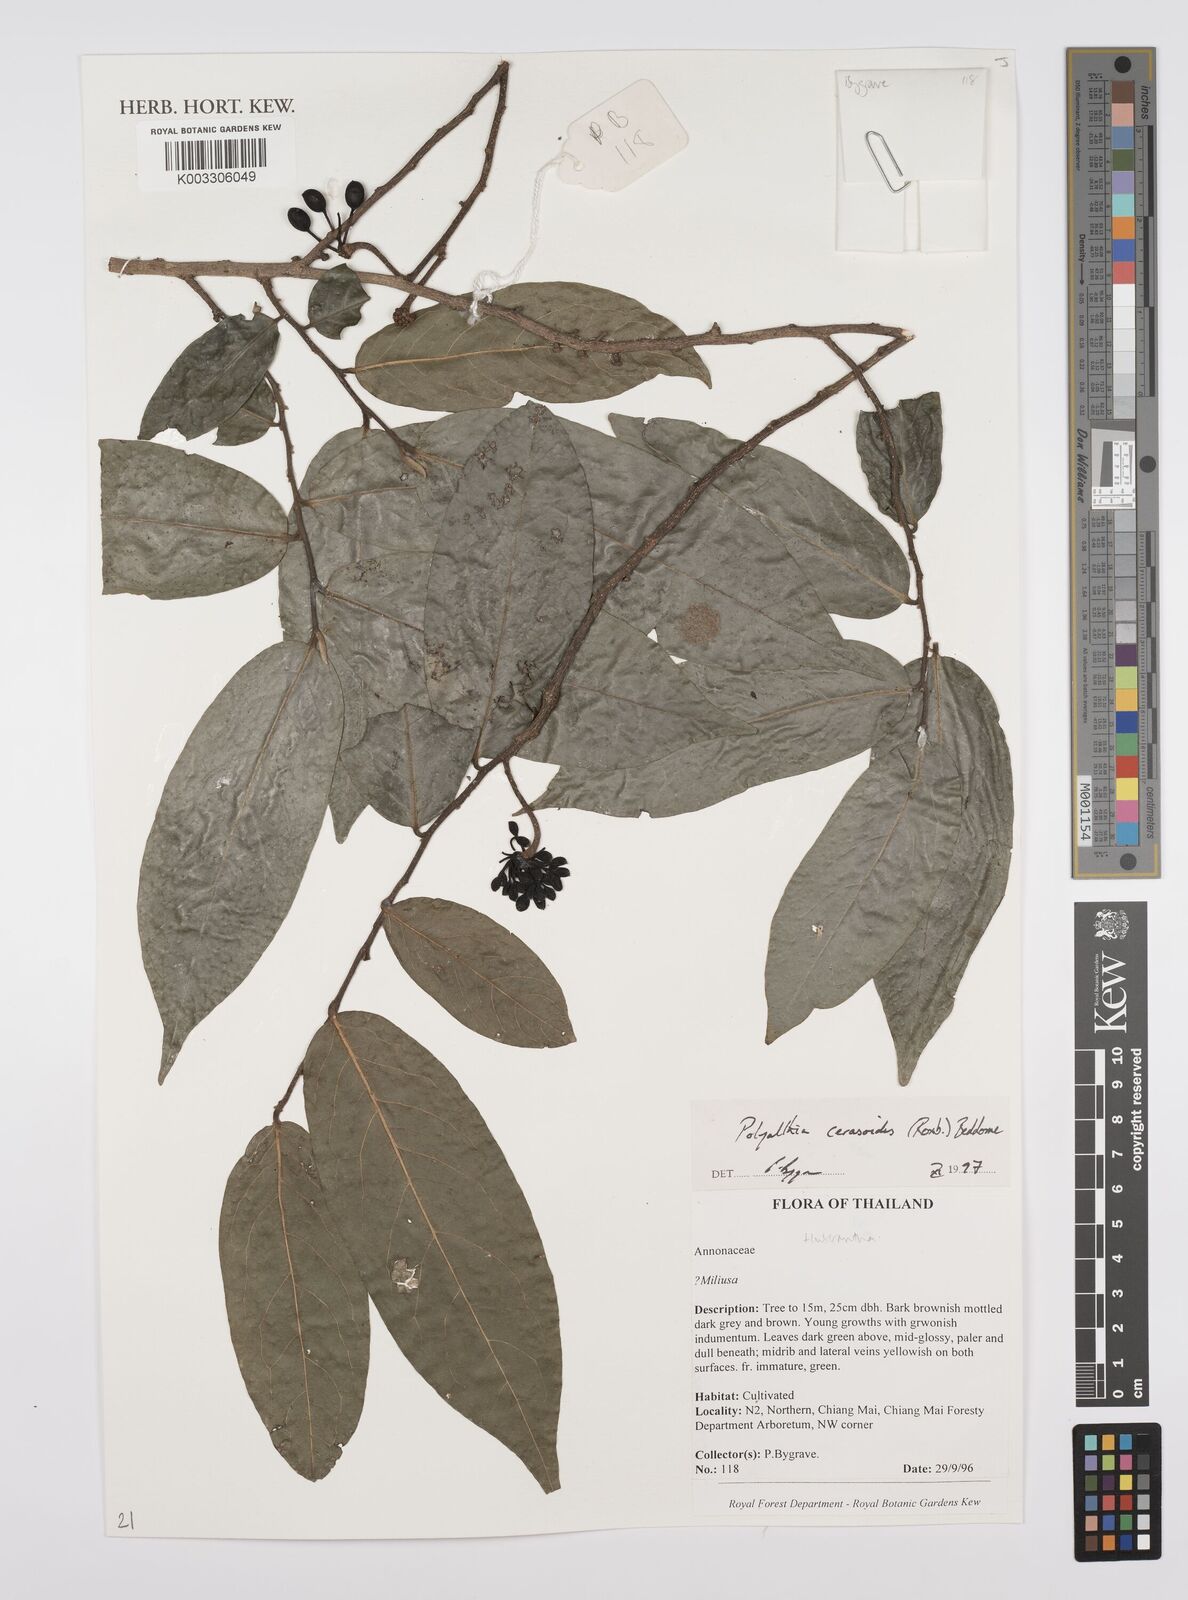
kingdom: Plantae
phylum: Tracheophyta
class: Magnoliopsida
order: Magnoliales
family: Annonaceae
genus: Huberantha
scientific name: Huberantha
